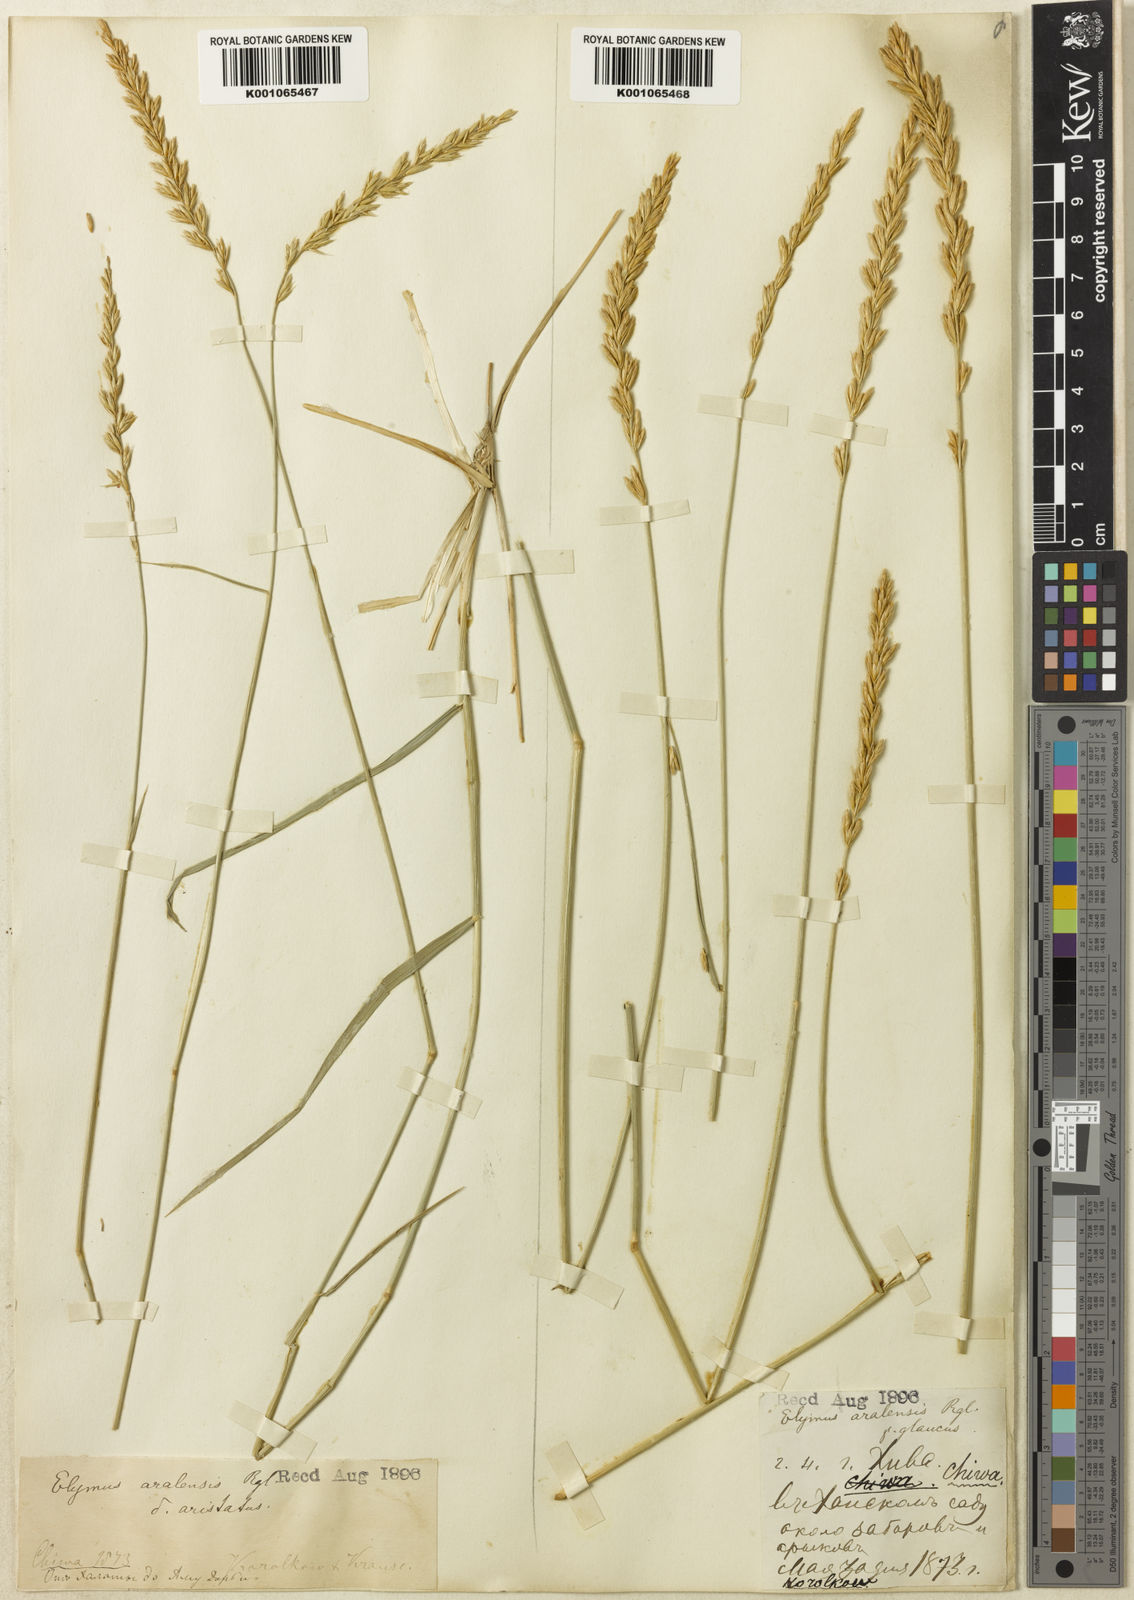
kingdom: Plantae
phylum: Tracheophyta
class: Liliopsida
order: Poales
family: Poaceae
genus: Leymus
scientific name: Leymus multicaulis
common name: Manystem wildrye
